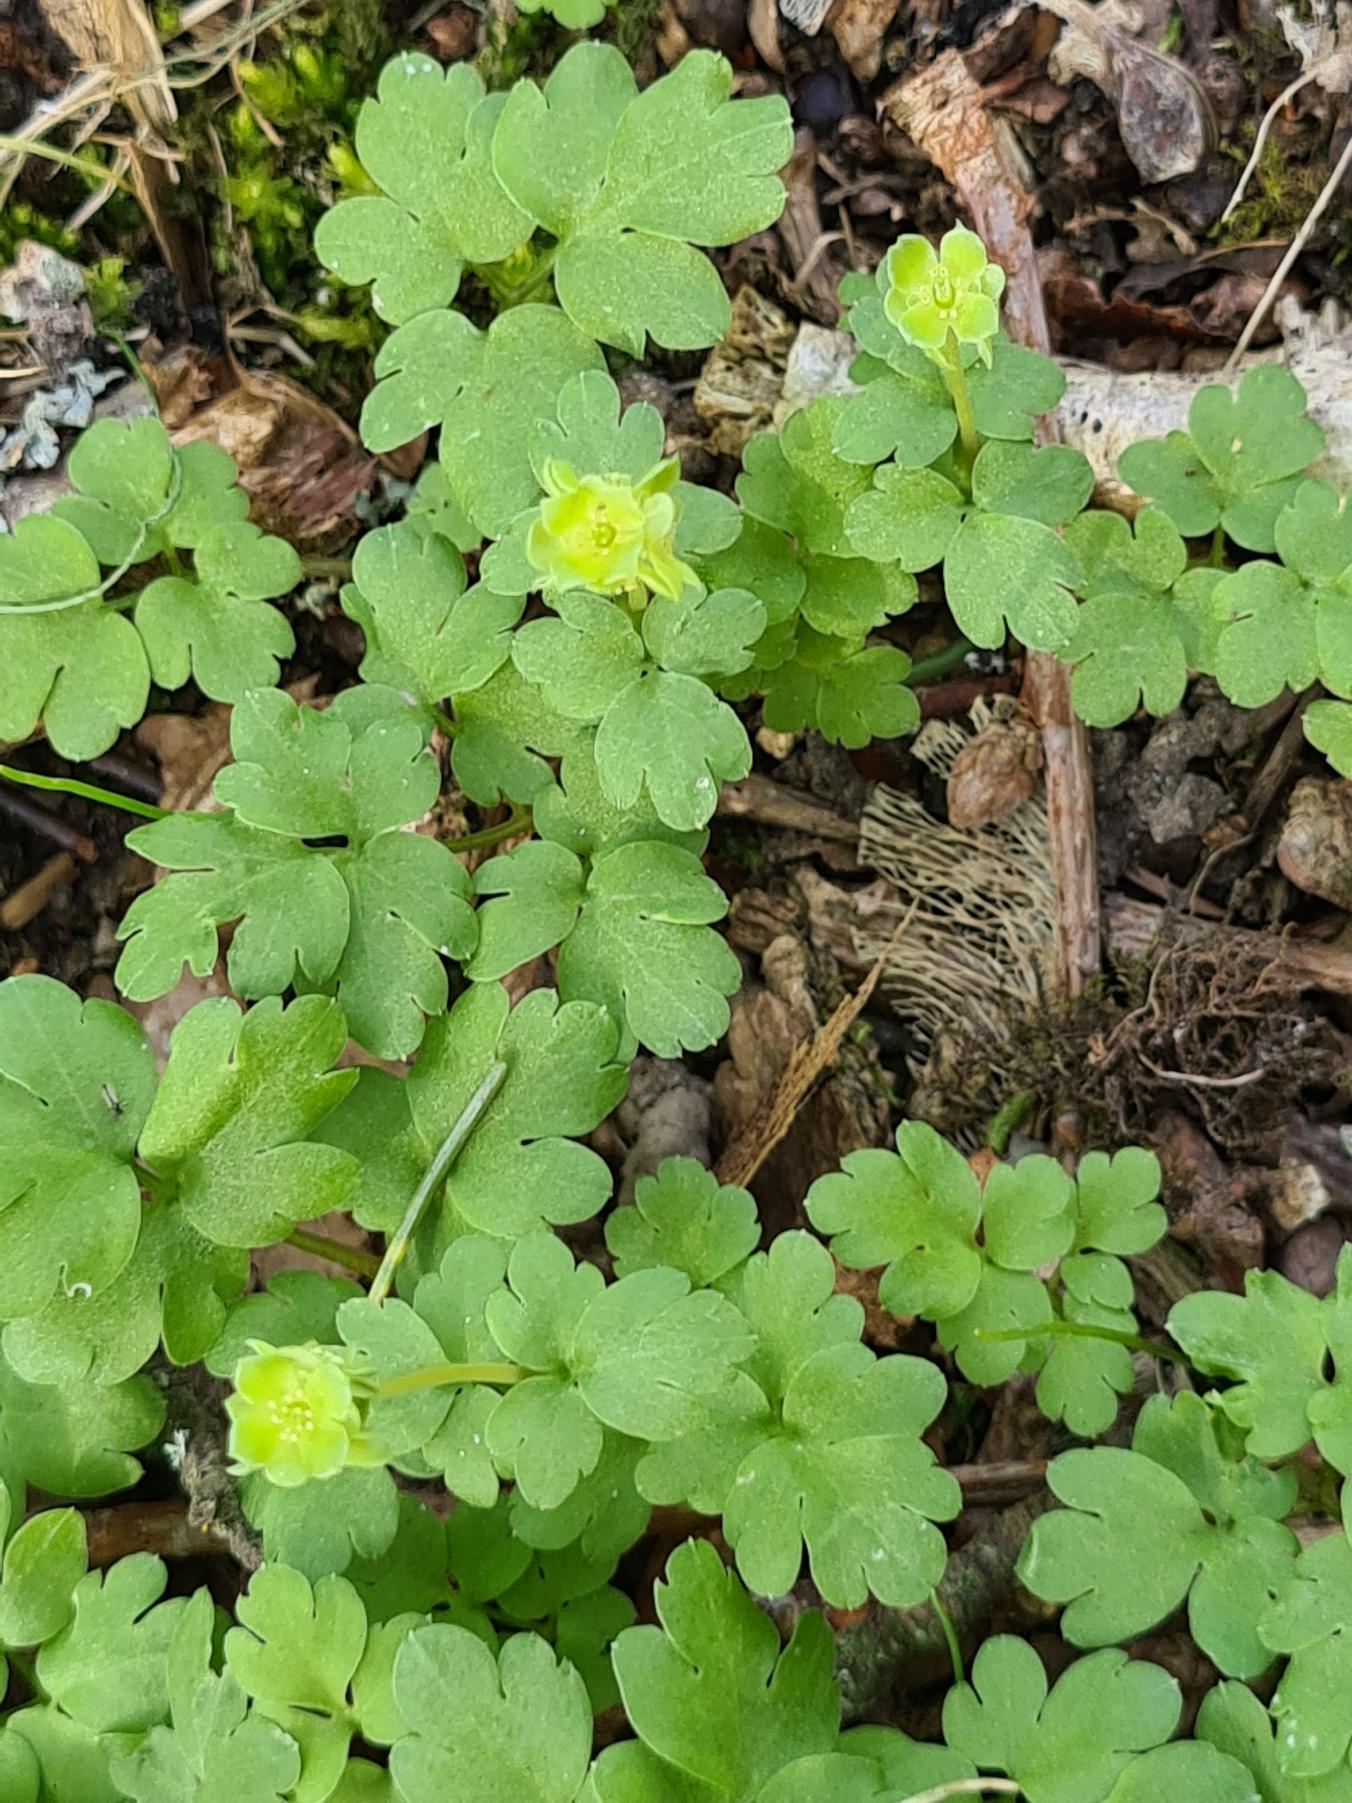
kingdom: Plantae
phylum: Tracheophyta
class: Magnoliopsida
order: Dipsacales
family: Viburnaceae
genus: Adoxa
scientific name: Adoxa moschatellina
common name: Desmerurt
